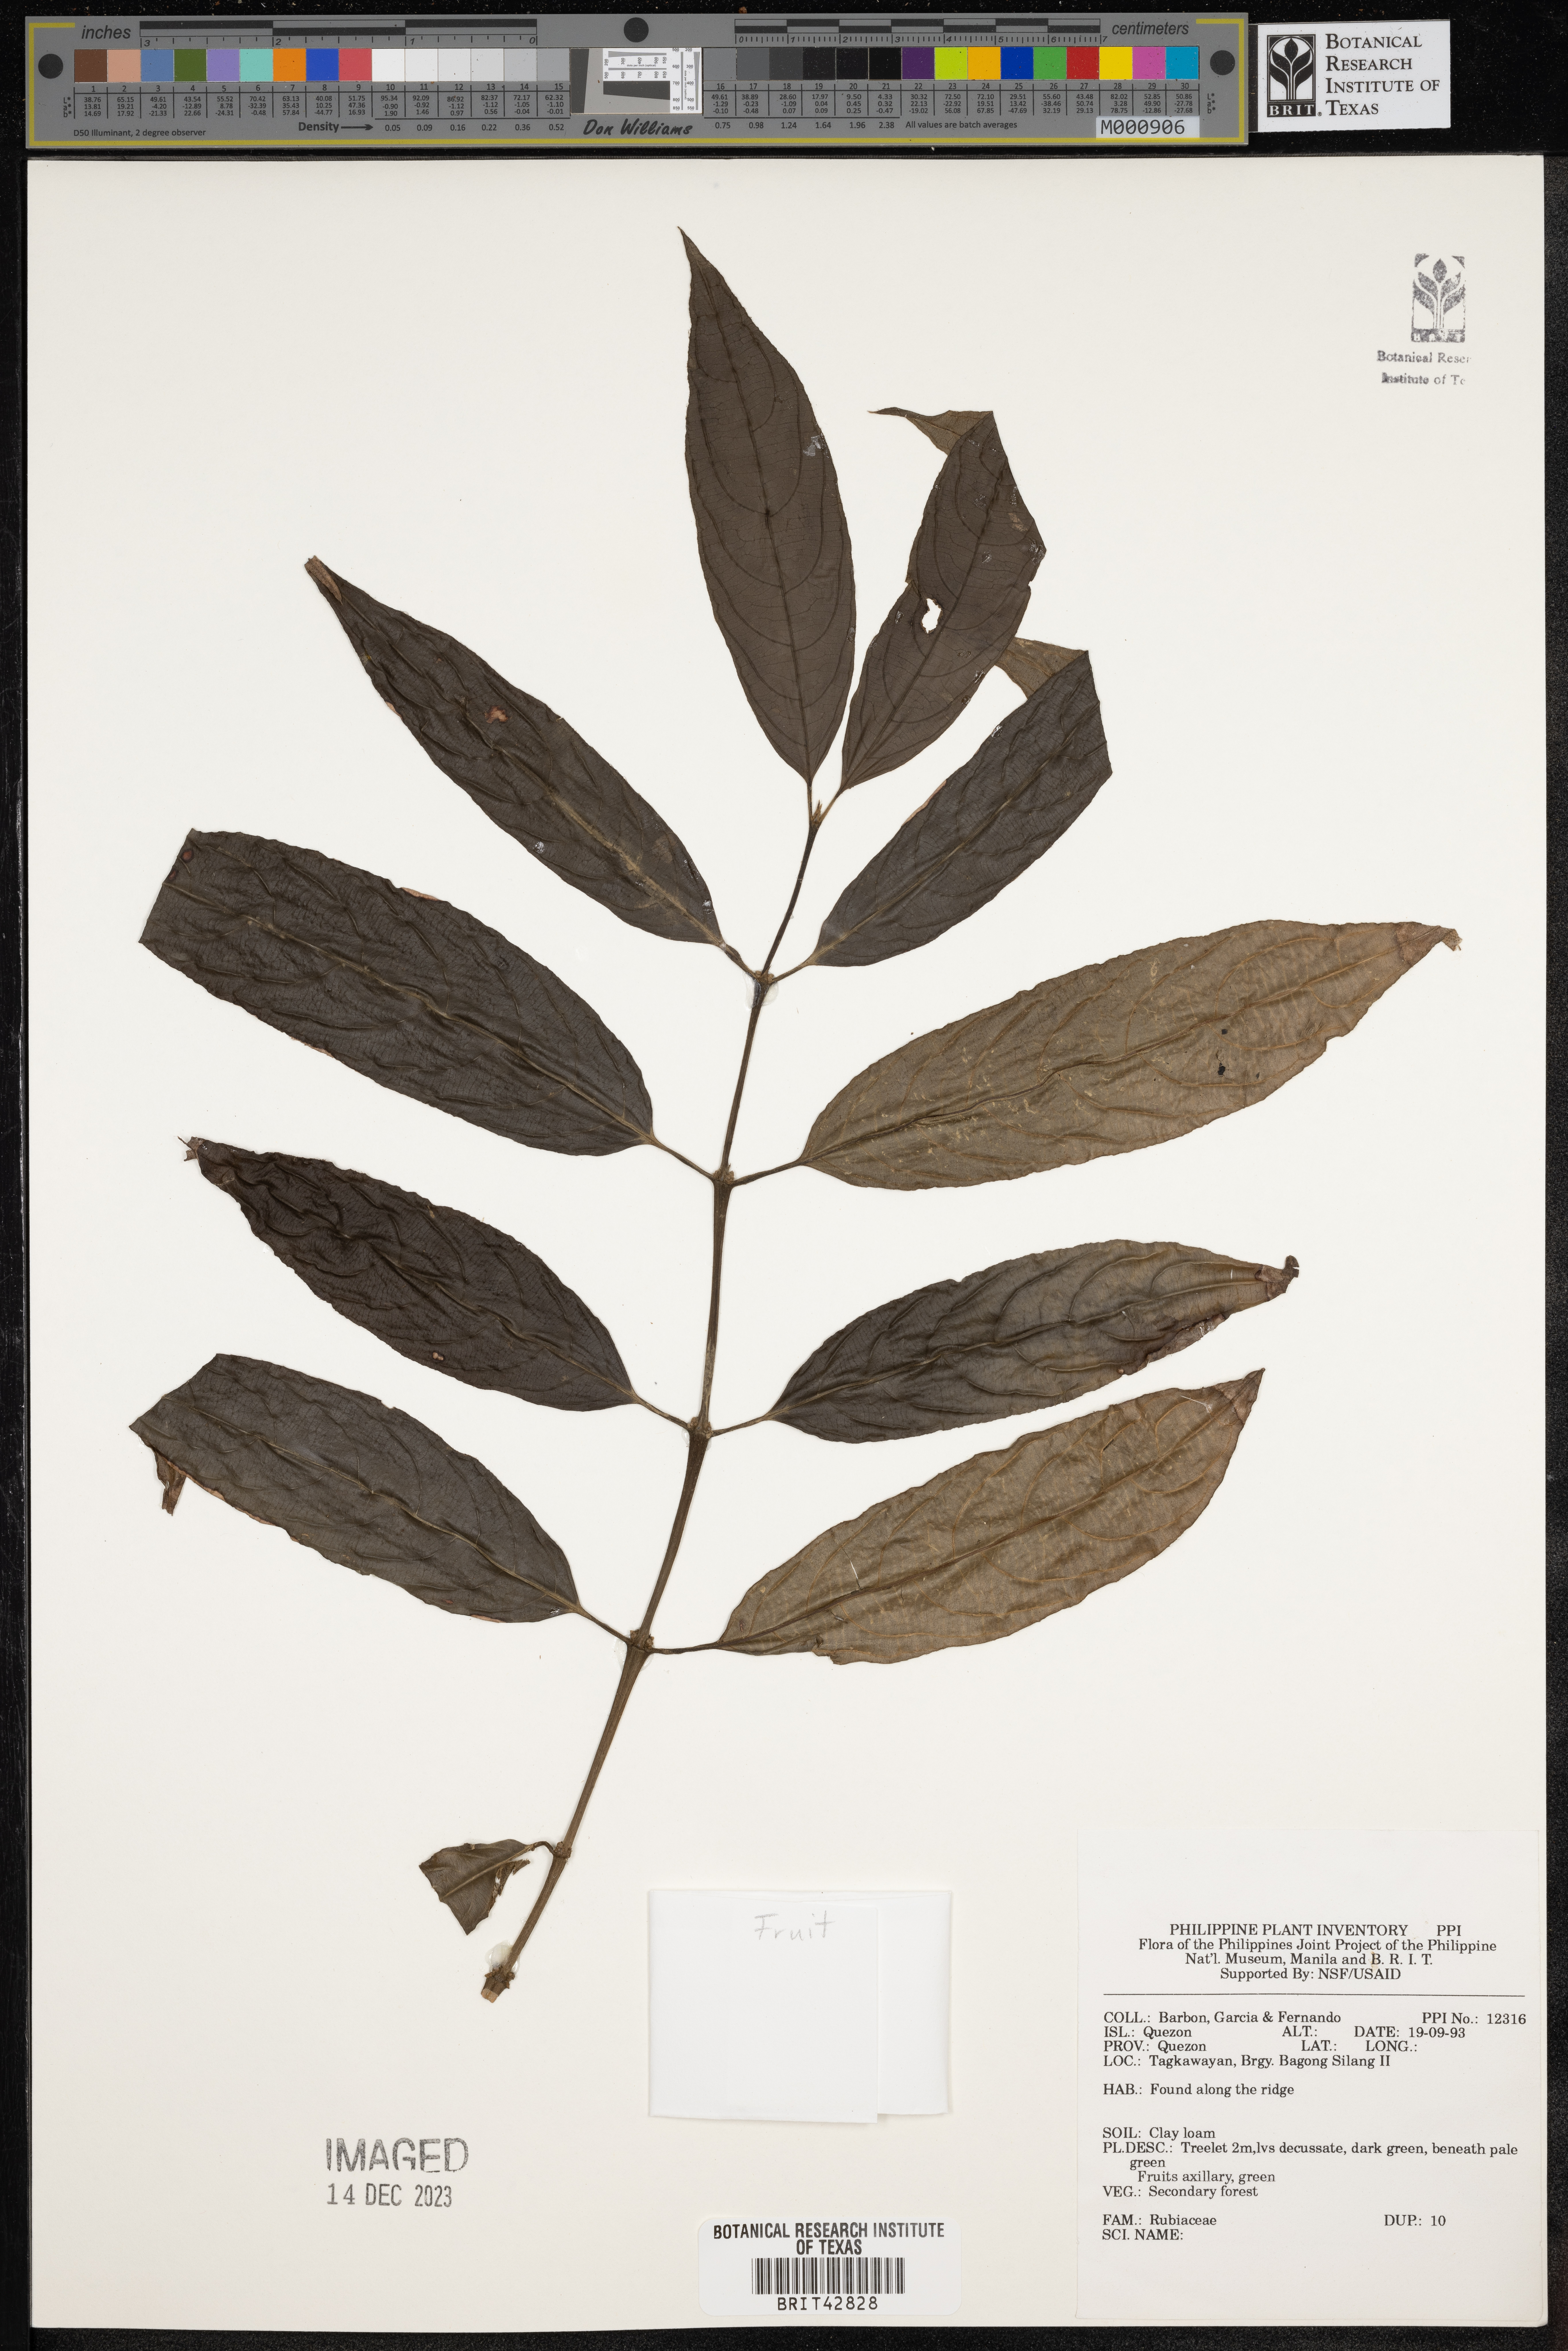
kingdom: Plantae
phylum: Tracheophyta
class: Magnoliopsida
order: Gentianales
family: Rubiaceae
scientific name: Rubiaceae
